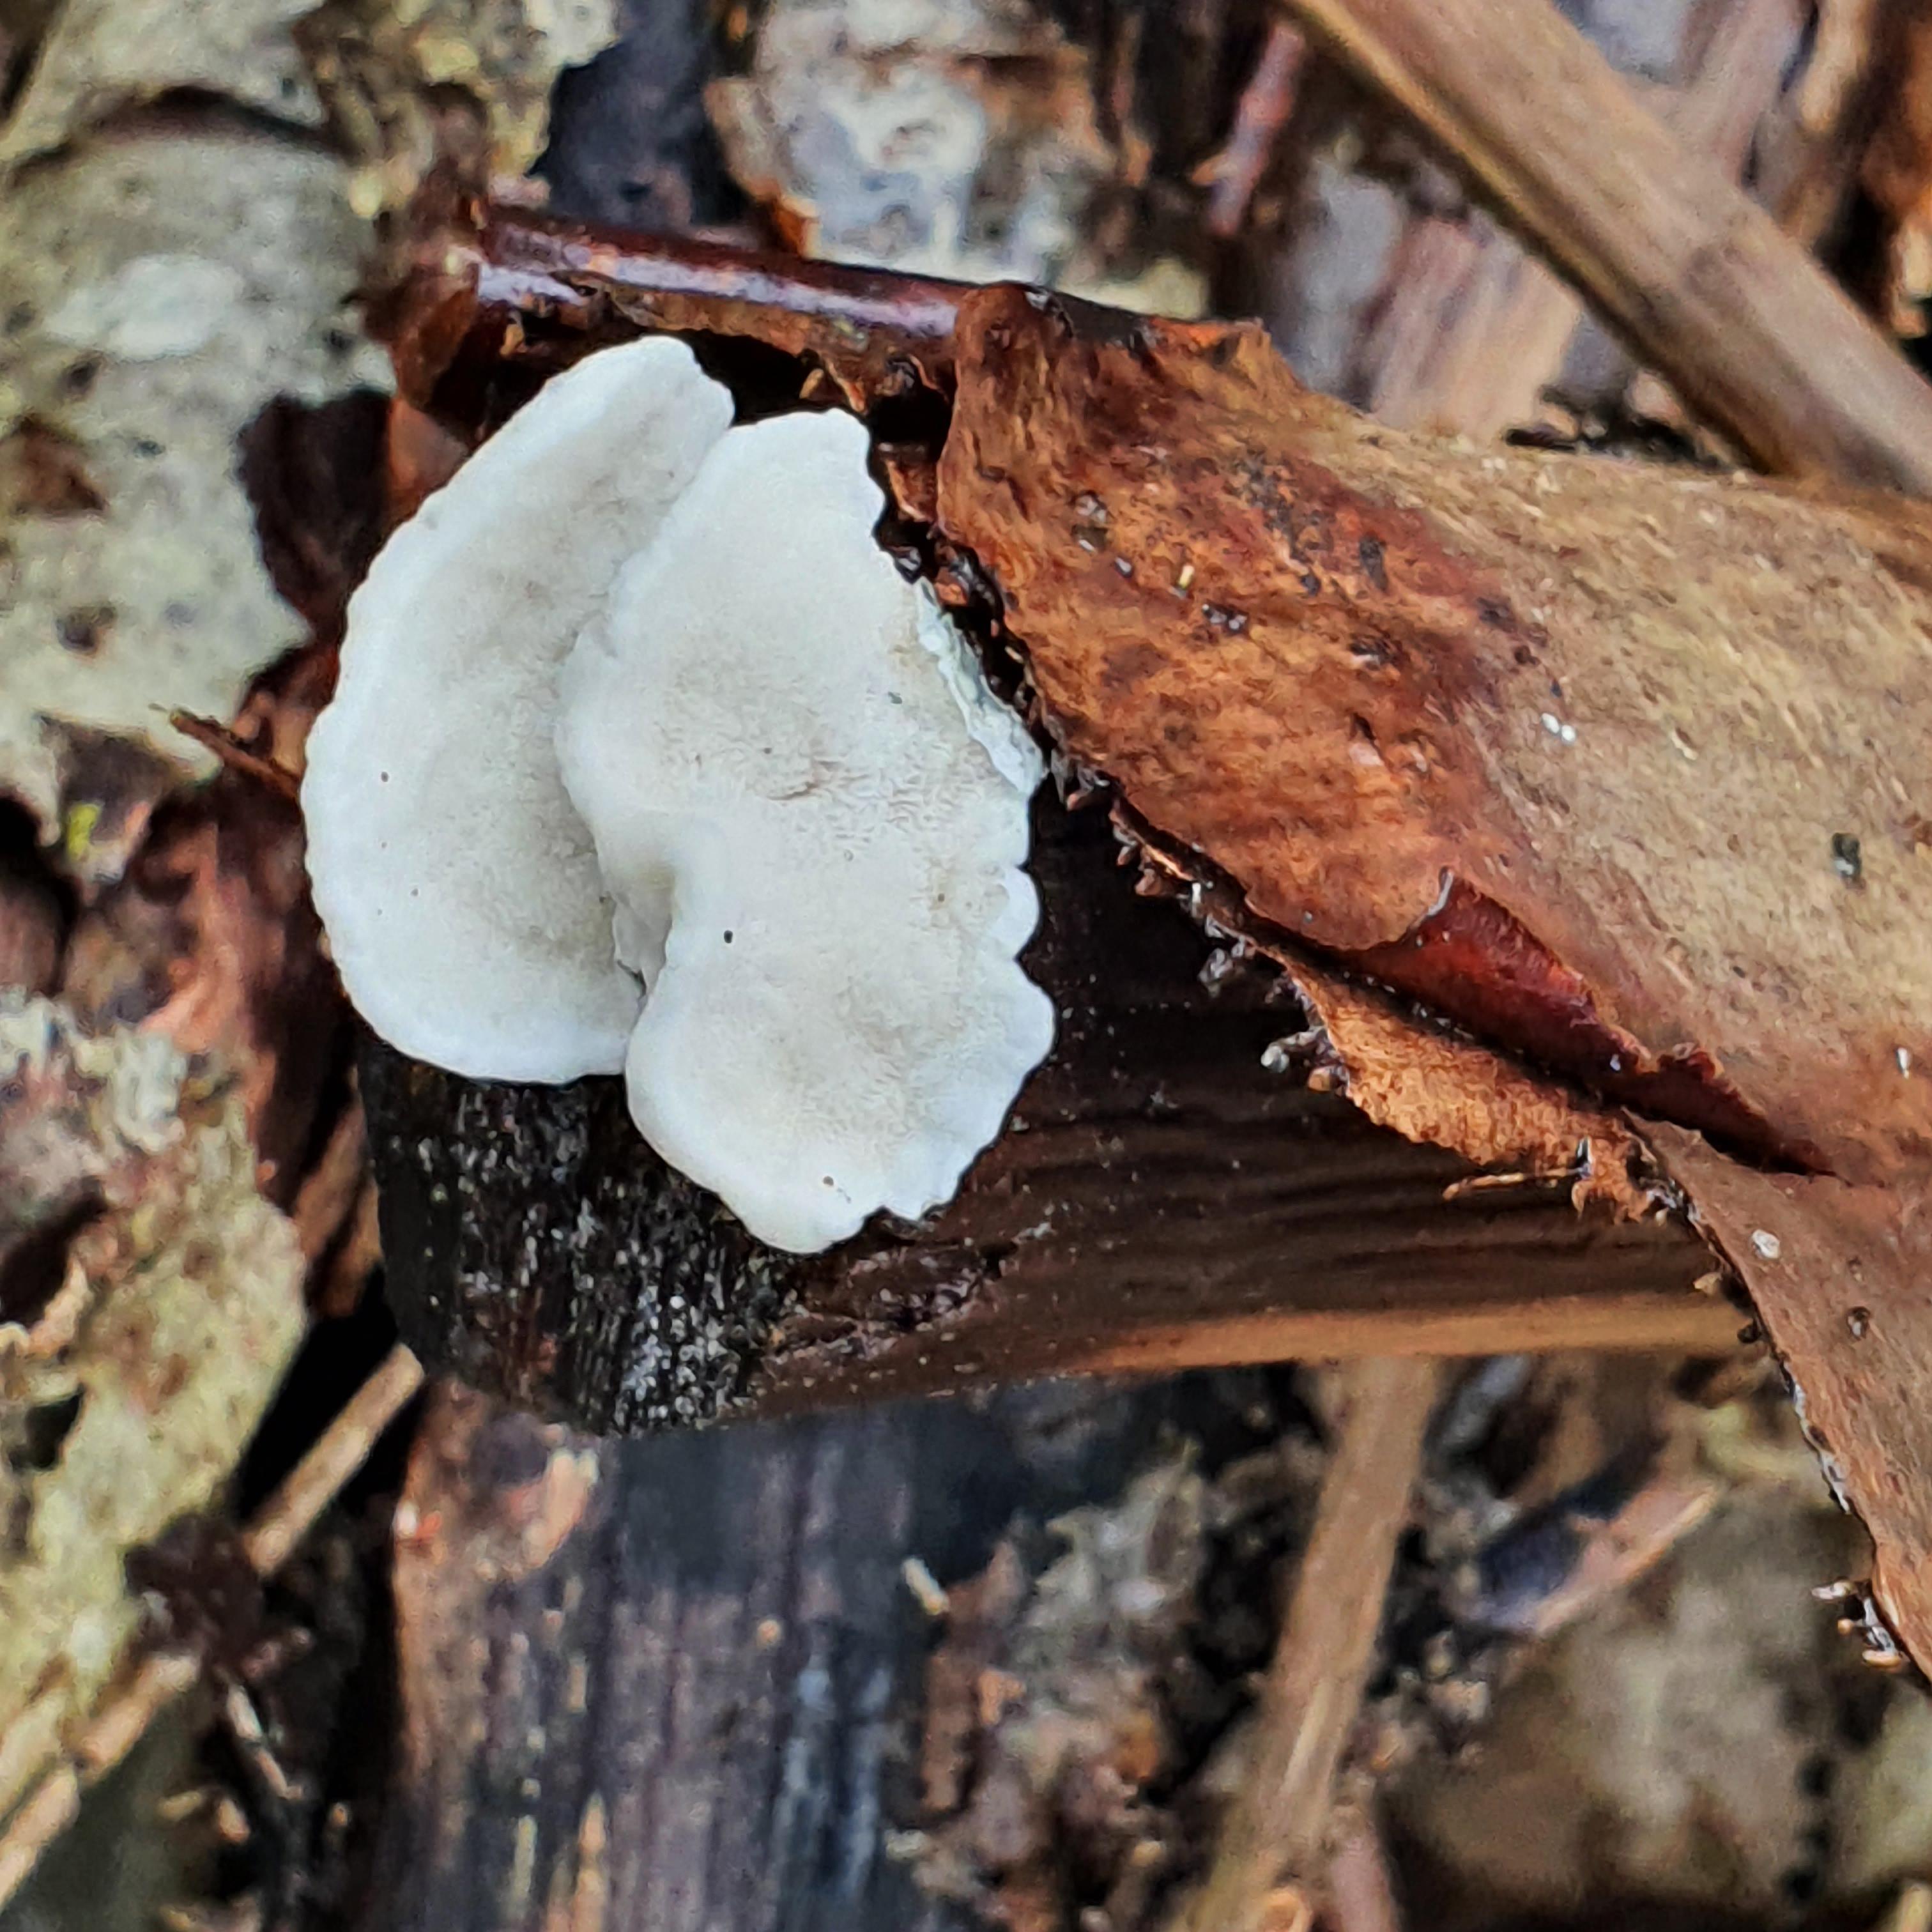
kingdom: Fungi
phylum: Basidiomycota
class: Agaricomycetes
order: Polyporales
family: Polyporaceae
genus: Cyanosporus
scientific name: Cyanosporus alni
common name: blegblå kødporesvamp
